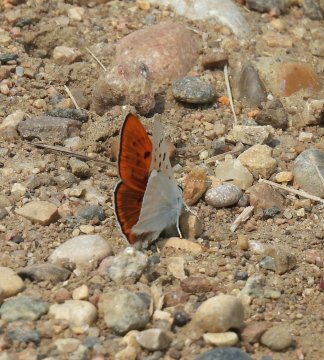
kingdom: Animalia
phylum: Arthropoda
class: Insecta
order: Lepidoptera
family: Sesiidae
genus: Sesia
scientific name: Sesia Lycaena rubidus
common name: Ruddy Copper
